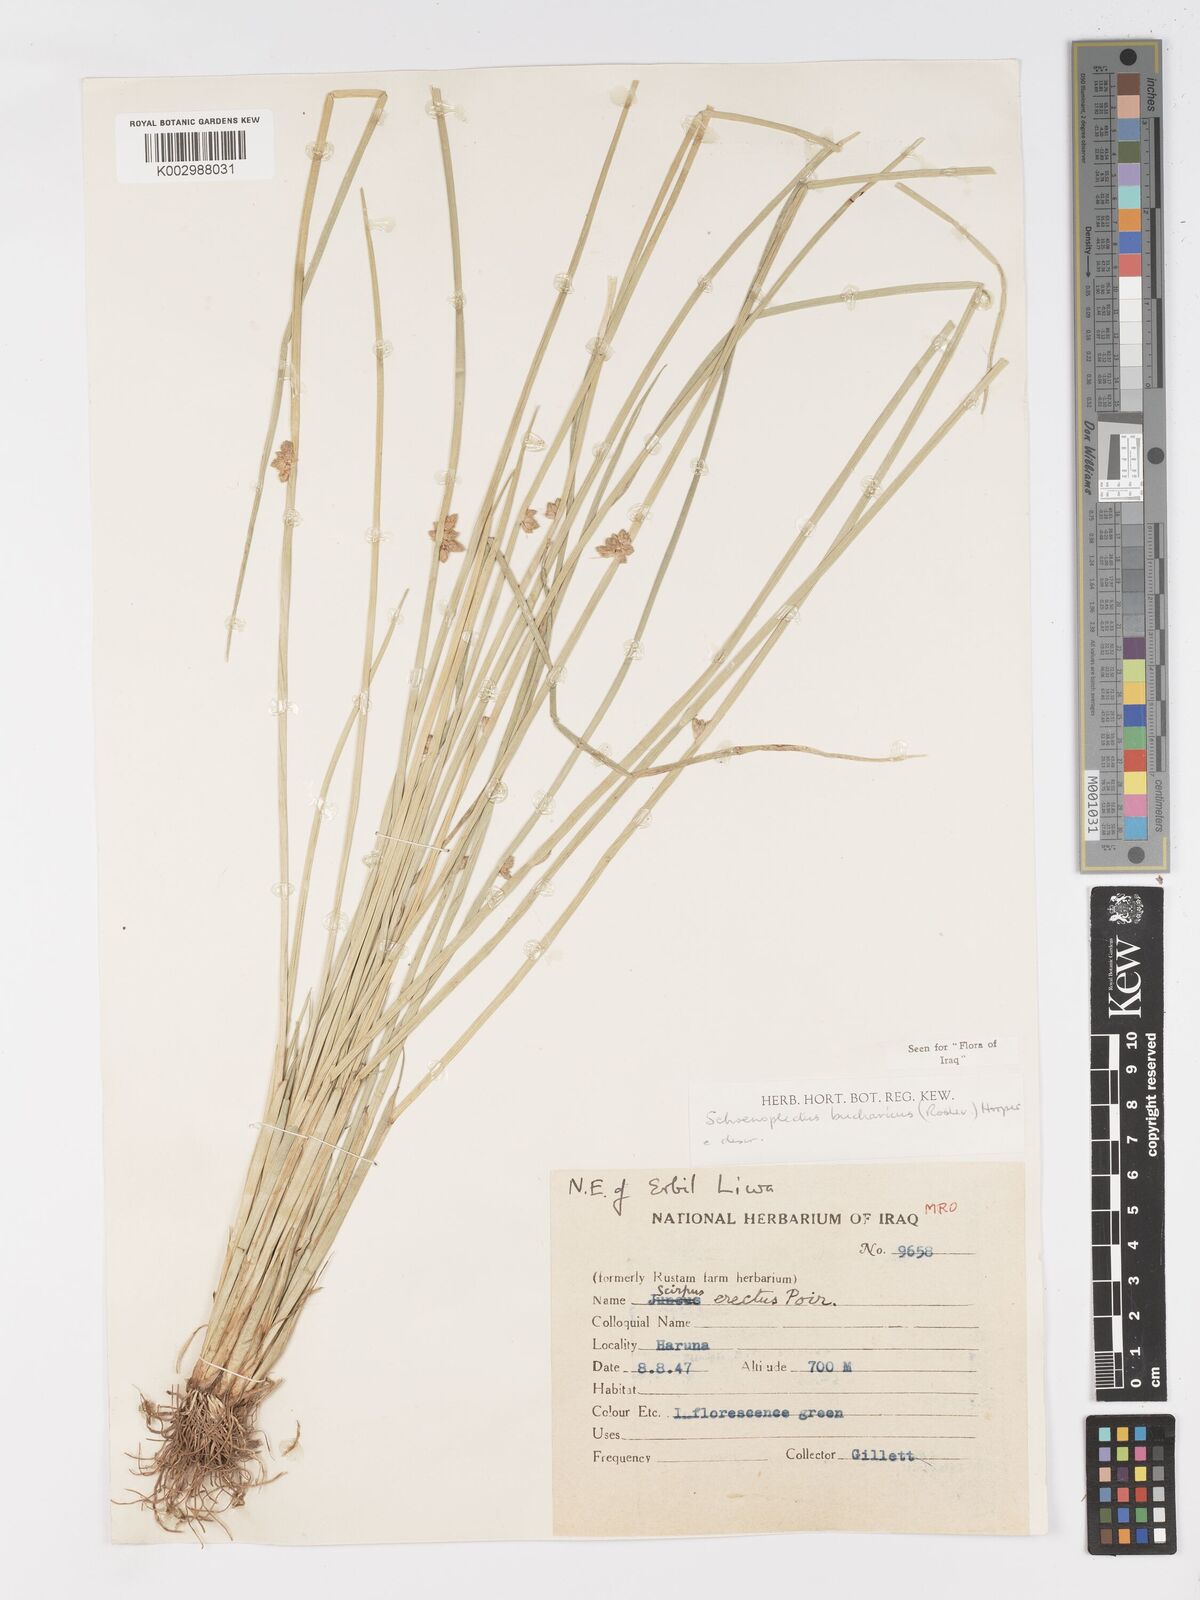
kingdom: Plantae
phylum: Tracheophyta
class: Liliopsida
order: Poales
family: Cyperaceae
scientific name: Cyperaceae
